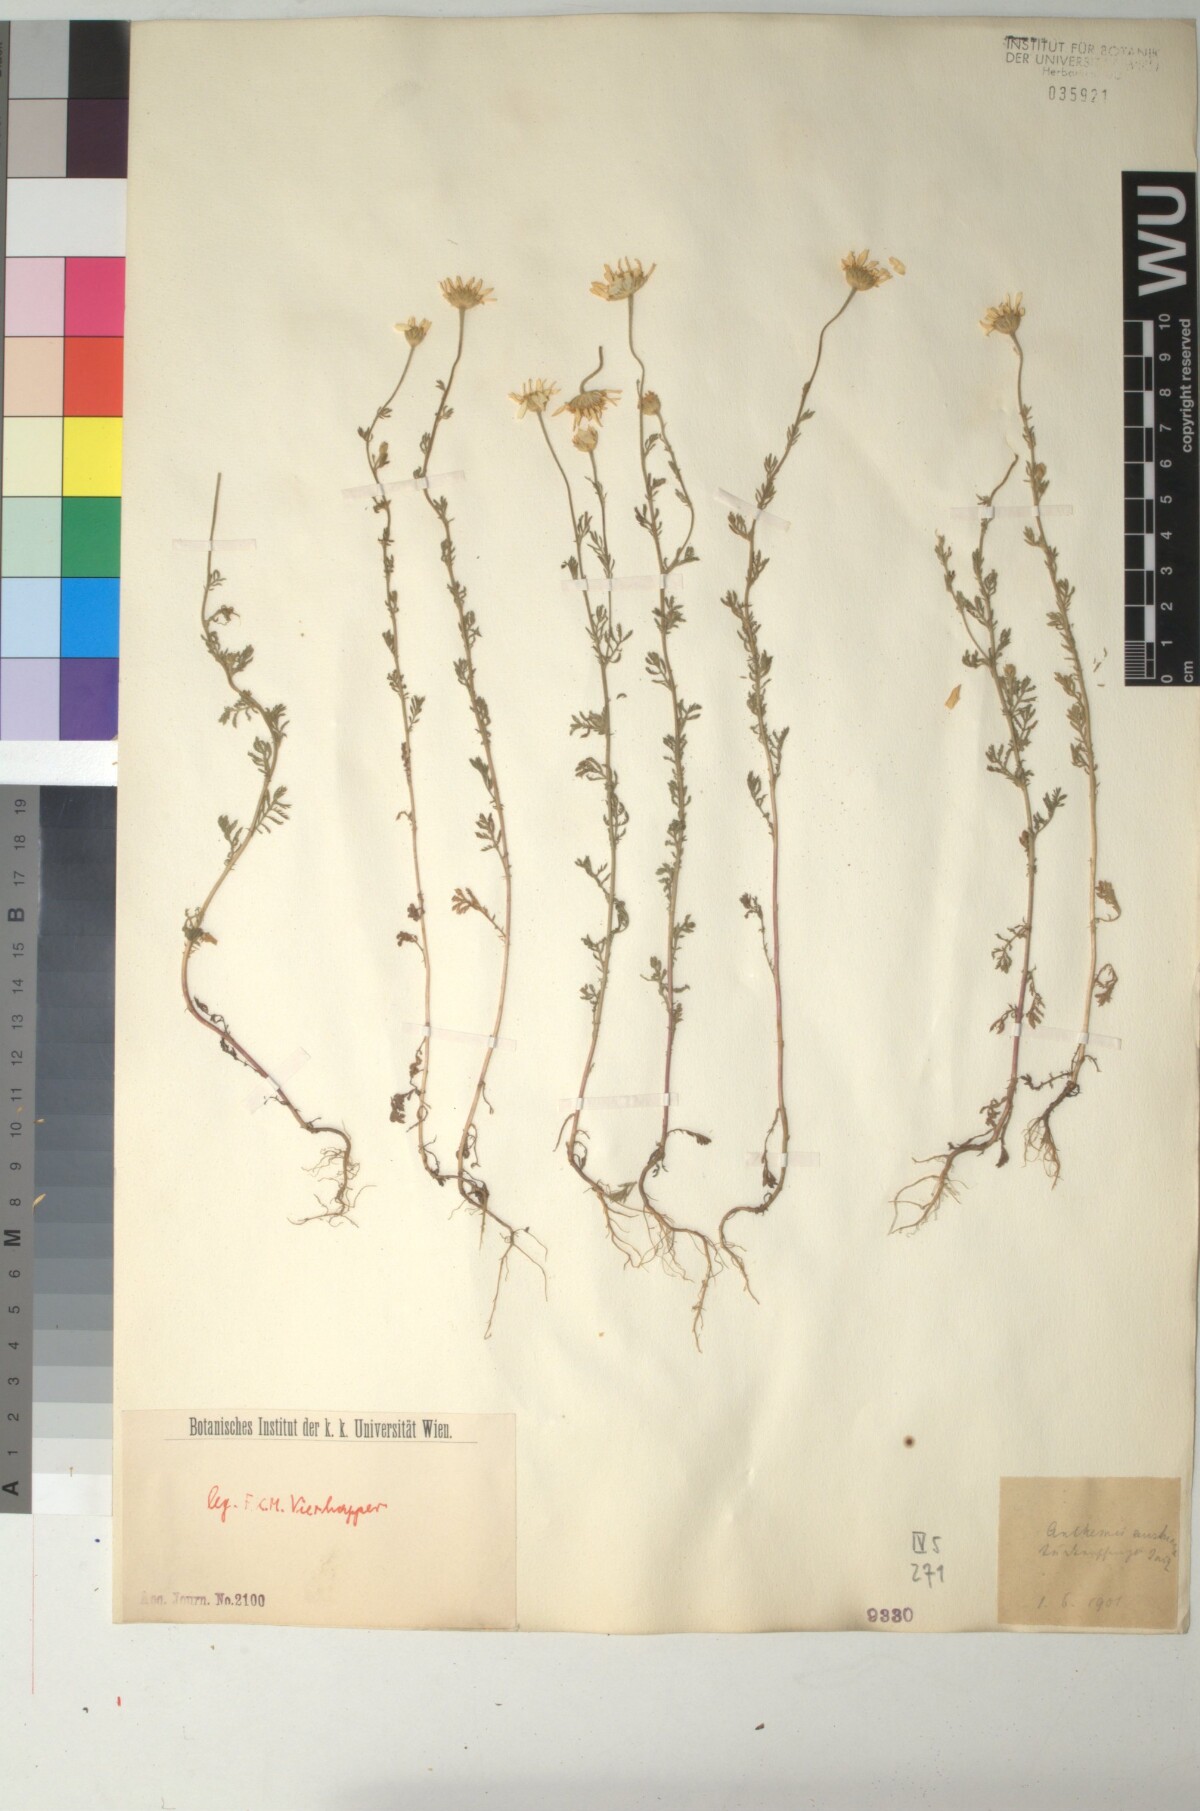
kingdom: Plantae
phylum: Tracheophyta
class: Magnoliopsida
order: Asterales
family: Asteraceae
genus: Cota
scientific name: Cota austriaca
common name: Austrian chamomile
